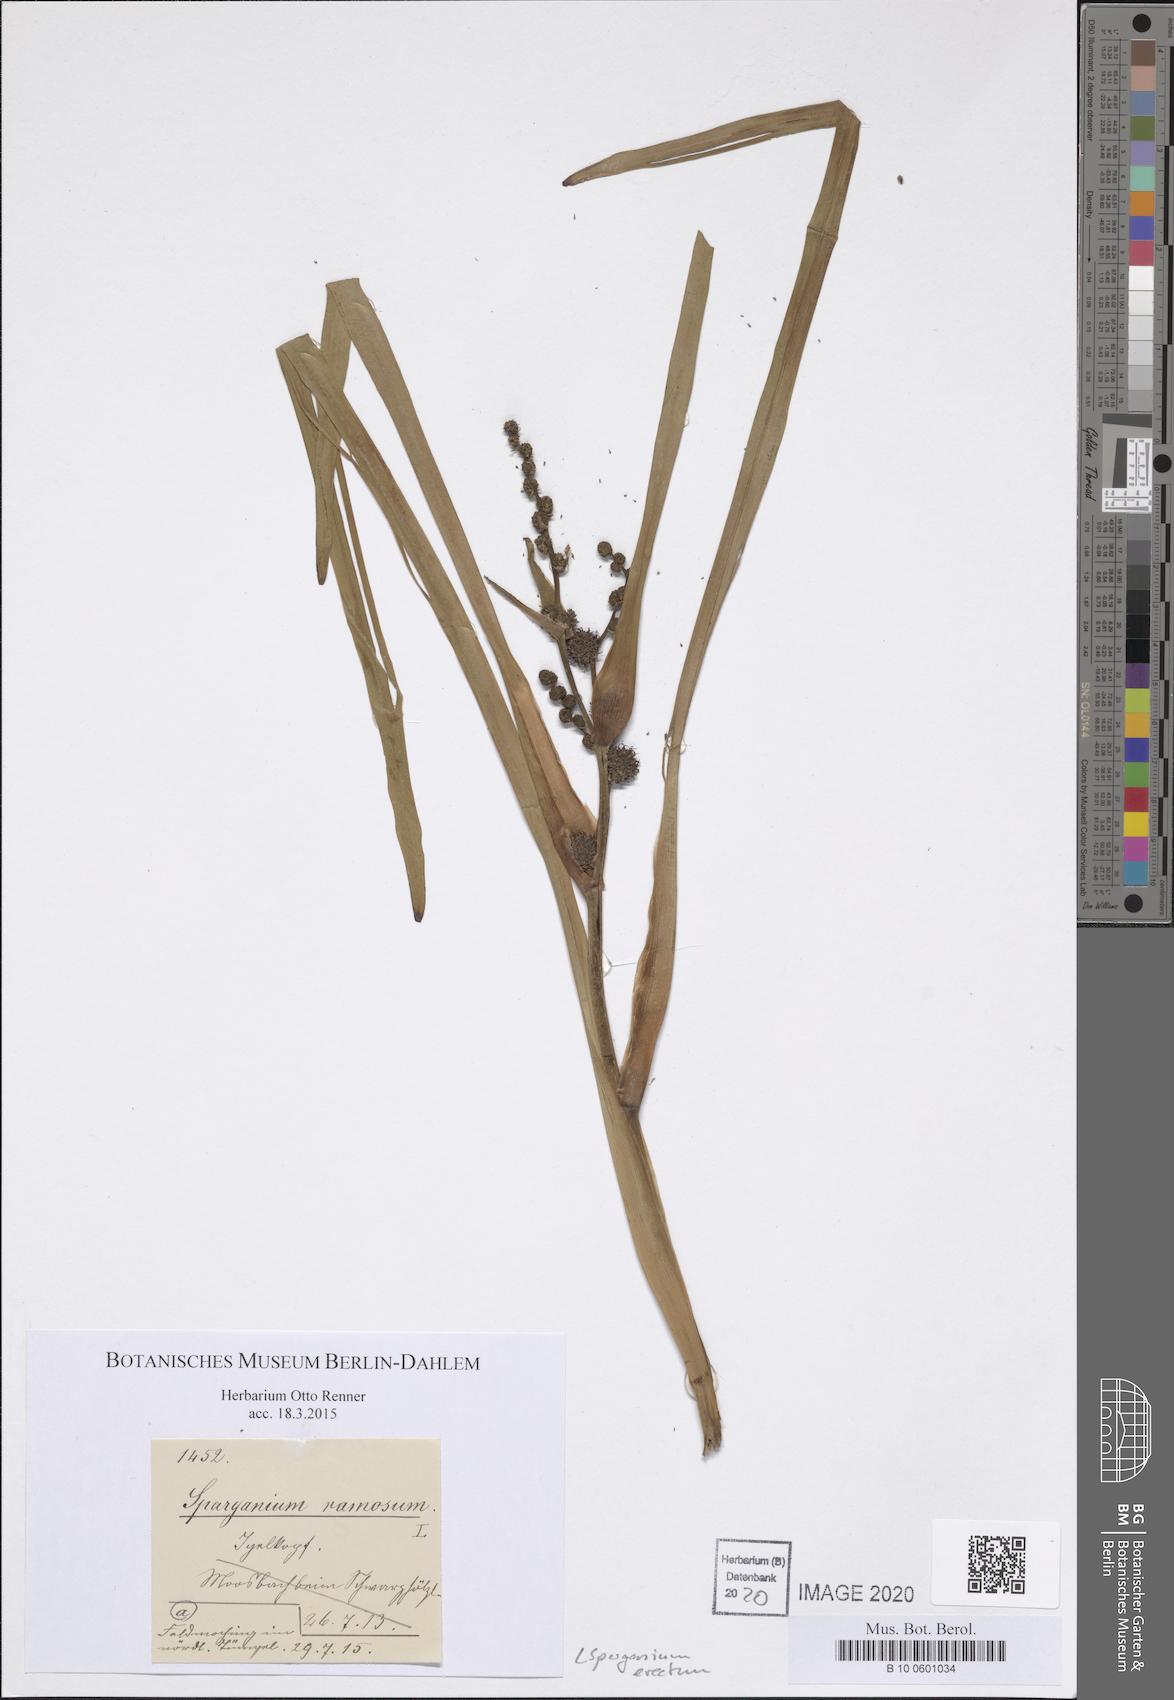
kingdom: Plantae
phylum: Tracheophyta
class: Liliopsida
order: Poales
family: Typhaceae
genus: Sparganium
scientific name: Sparganium erectum
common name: Branched bur-reed
